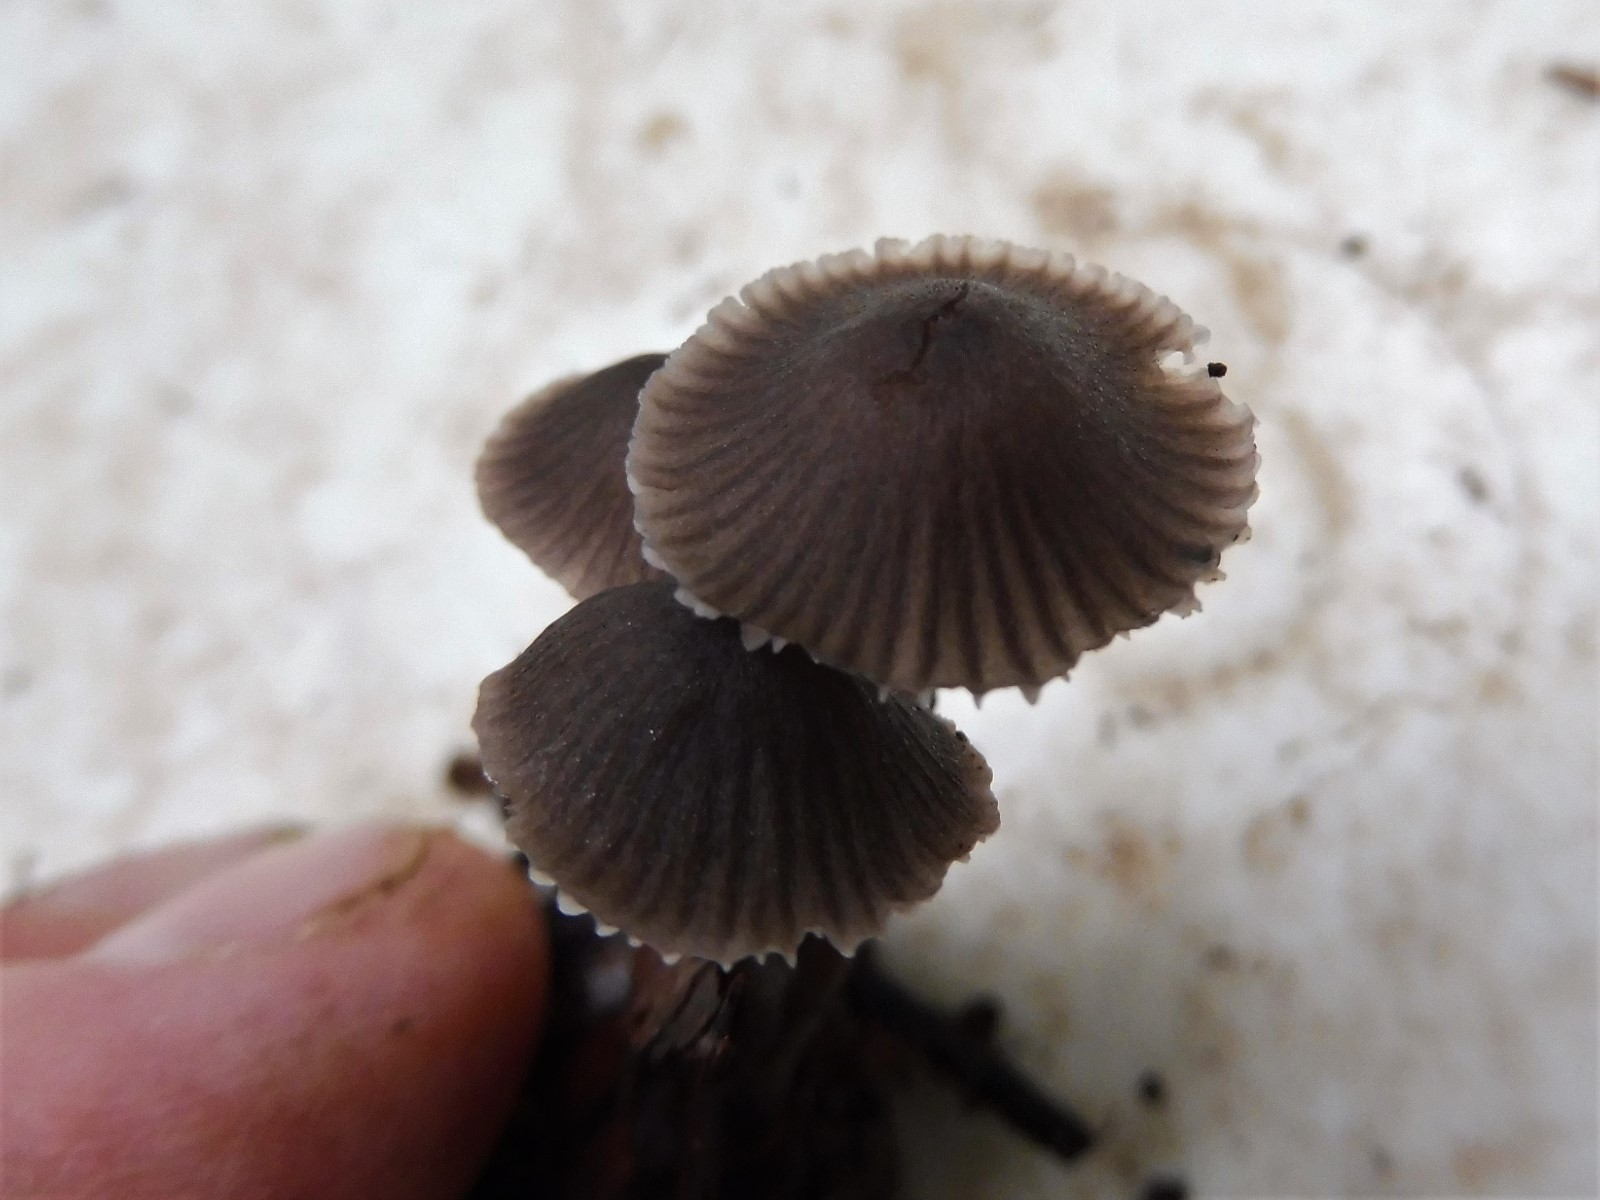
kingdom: Fungi
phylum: Basidiomycota
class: Agaricomycetes
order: Agaricales
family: Mycenaceae
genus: Mycena
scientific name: Mycena leptocephala
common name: klor-huesvamp
